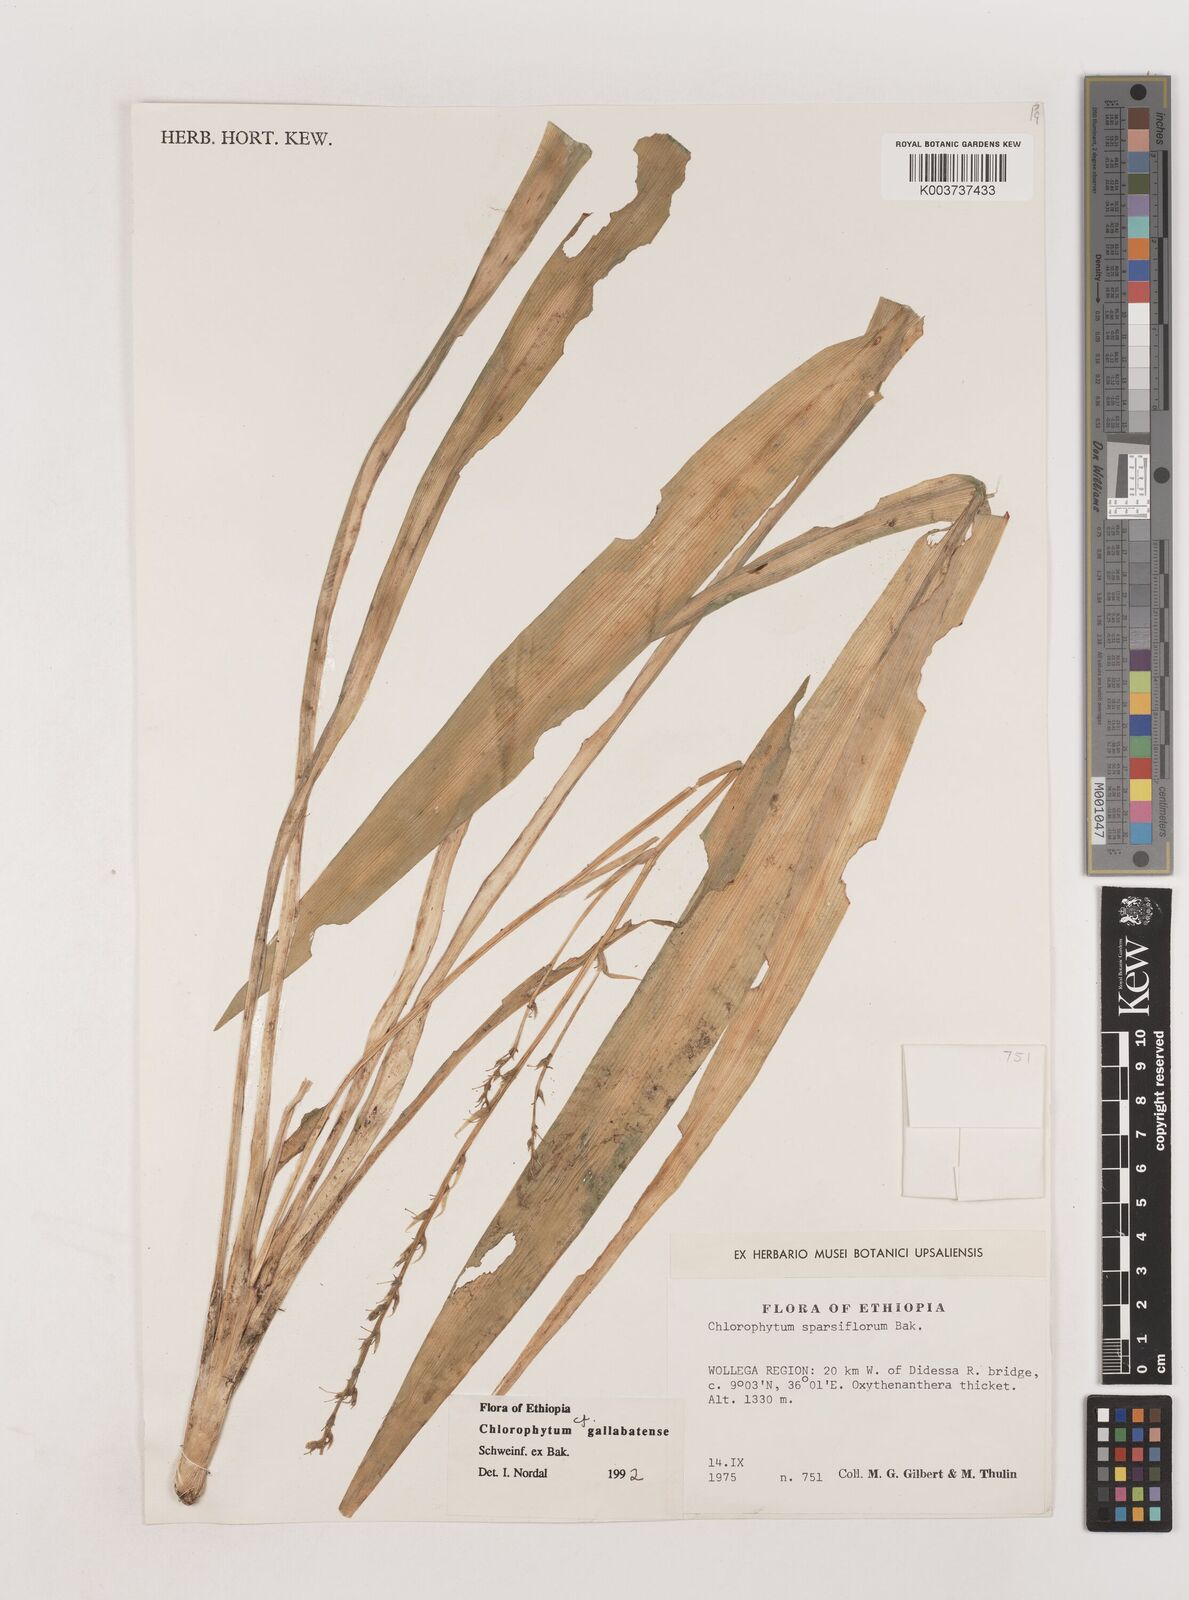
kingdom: Plantae
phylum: Tracheophyta
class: Liliopsida
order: Asparagales
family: Asparagaceae
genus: Chlorophytum
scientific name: Chlorophytum gallabatense
